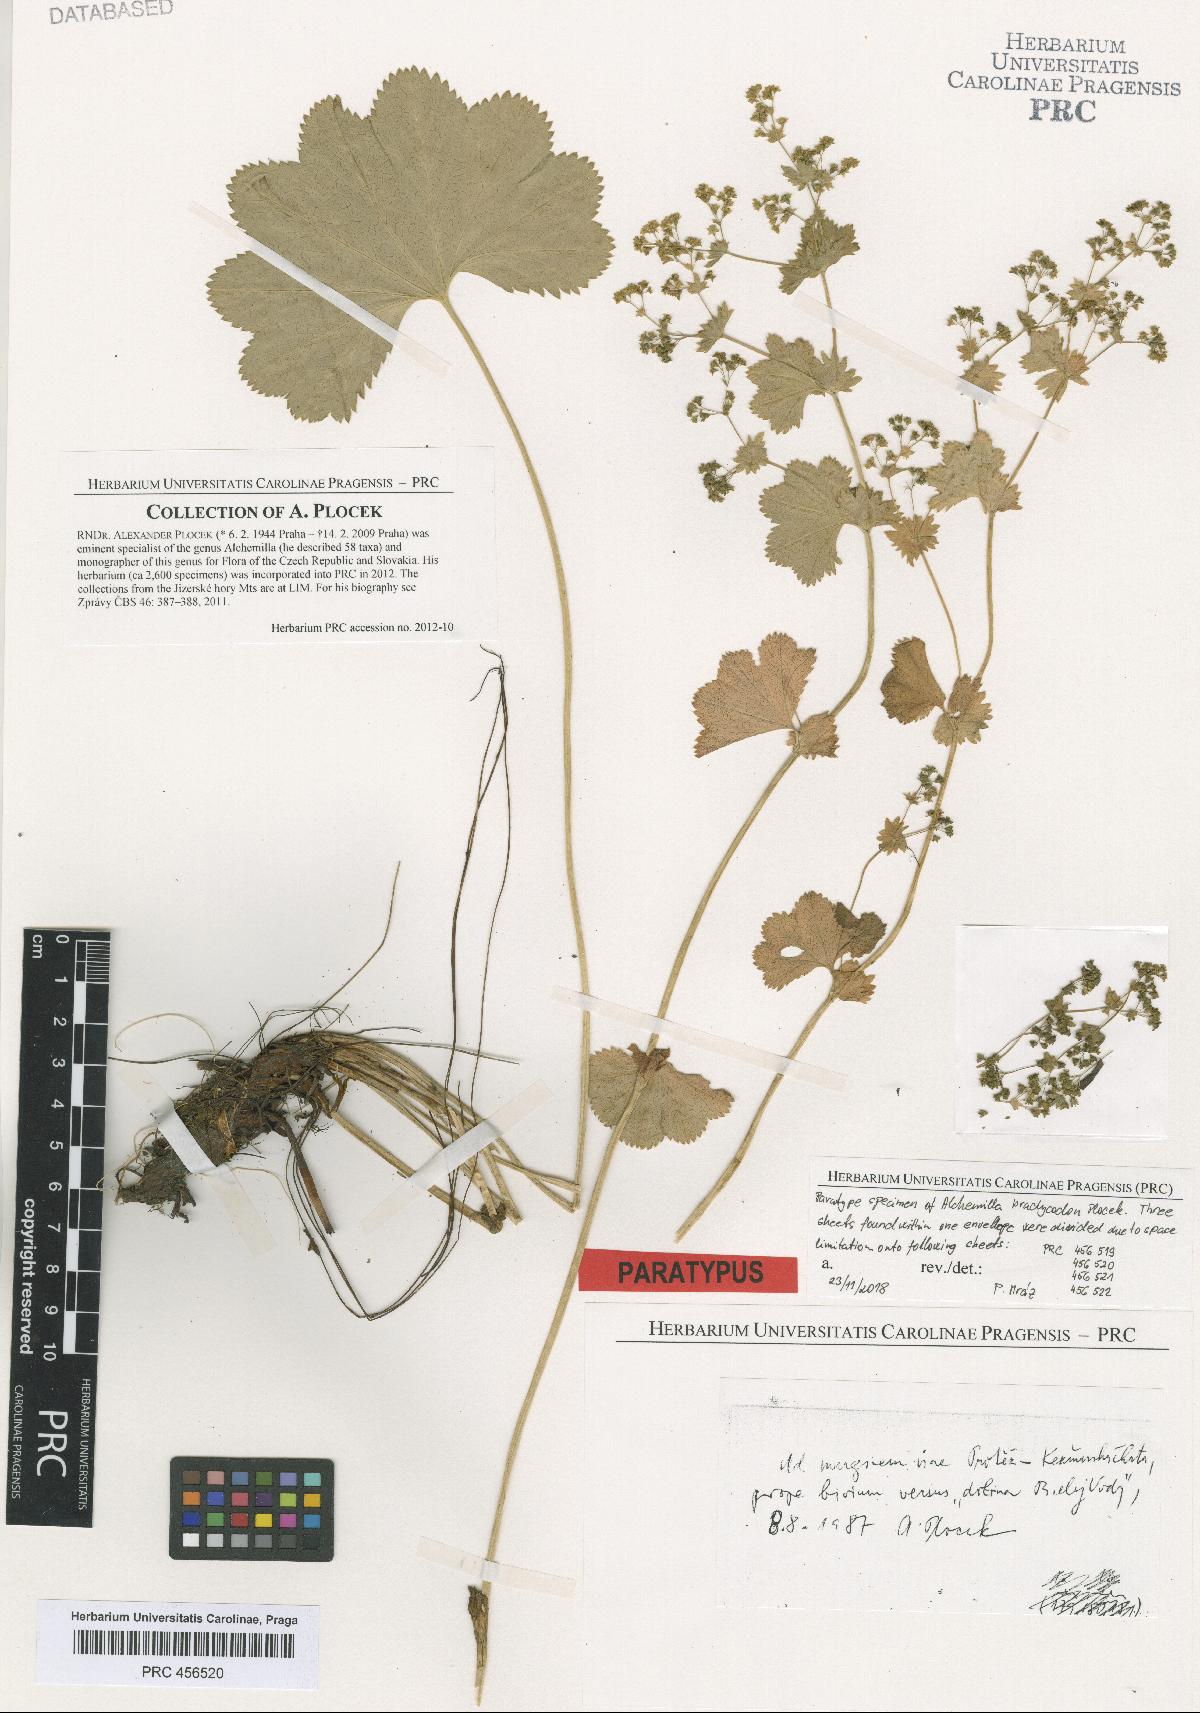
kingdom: Plantae
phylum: Tracheophyta
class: Magnoliopsida
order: Rosales
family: Rosaceae
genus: Alchemilla
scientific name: Alchemilla brachycodon
